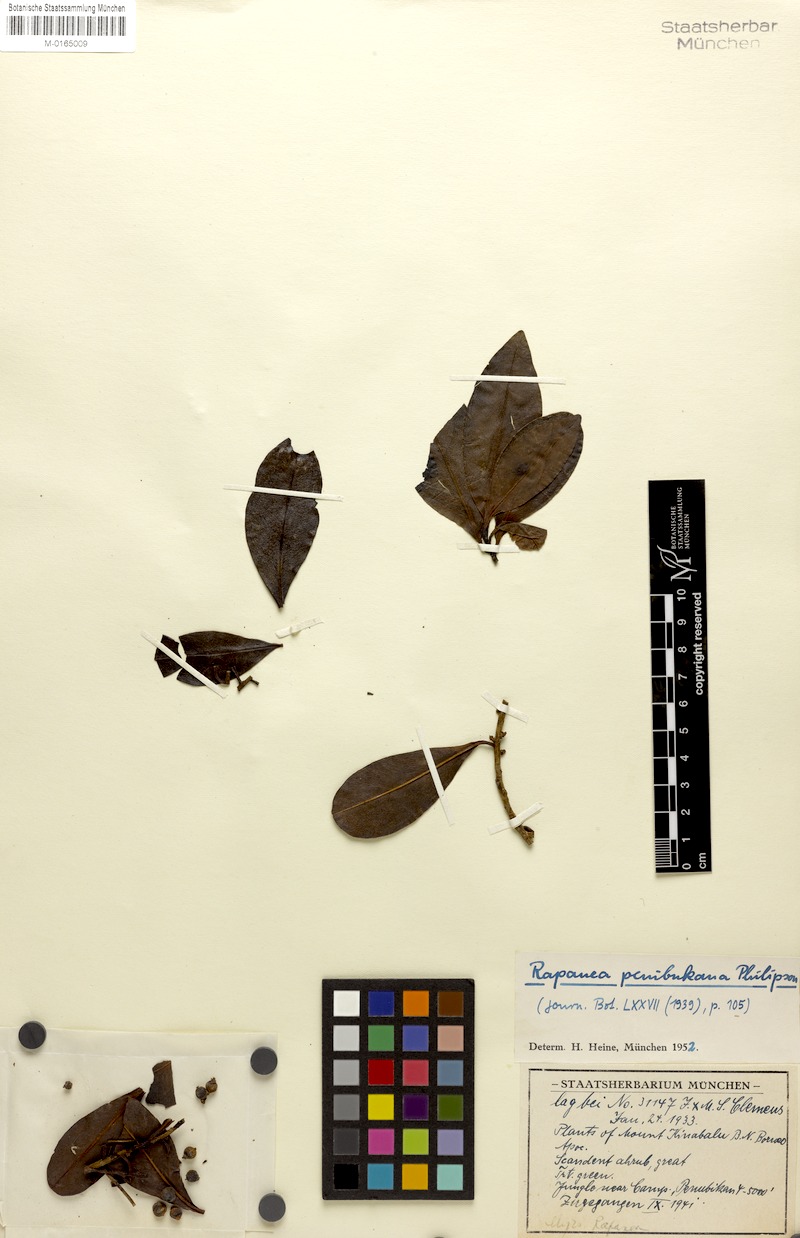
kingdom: Plantae
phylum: Tracheophyta
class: Magnoliopsida
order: Ericales
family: Primulaceae
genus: Myrsine
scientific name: Myrsine penibukana
